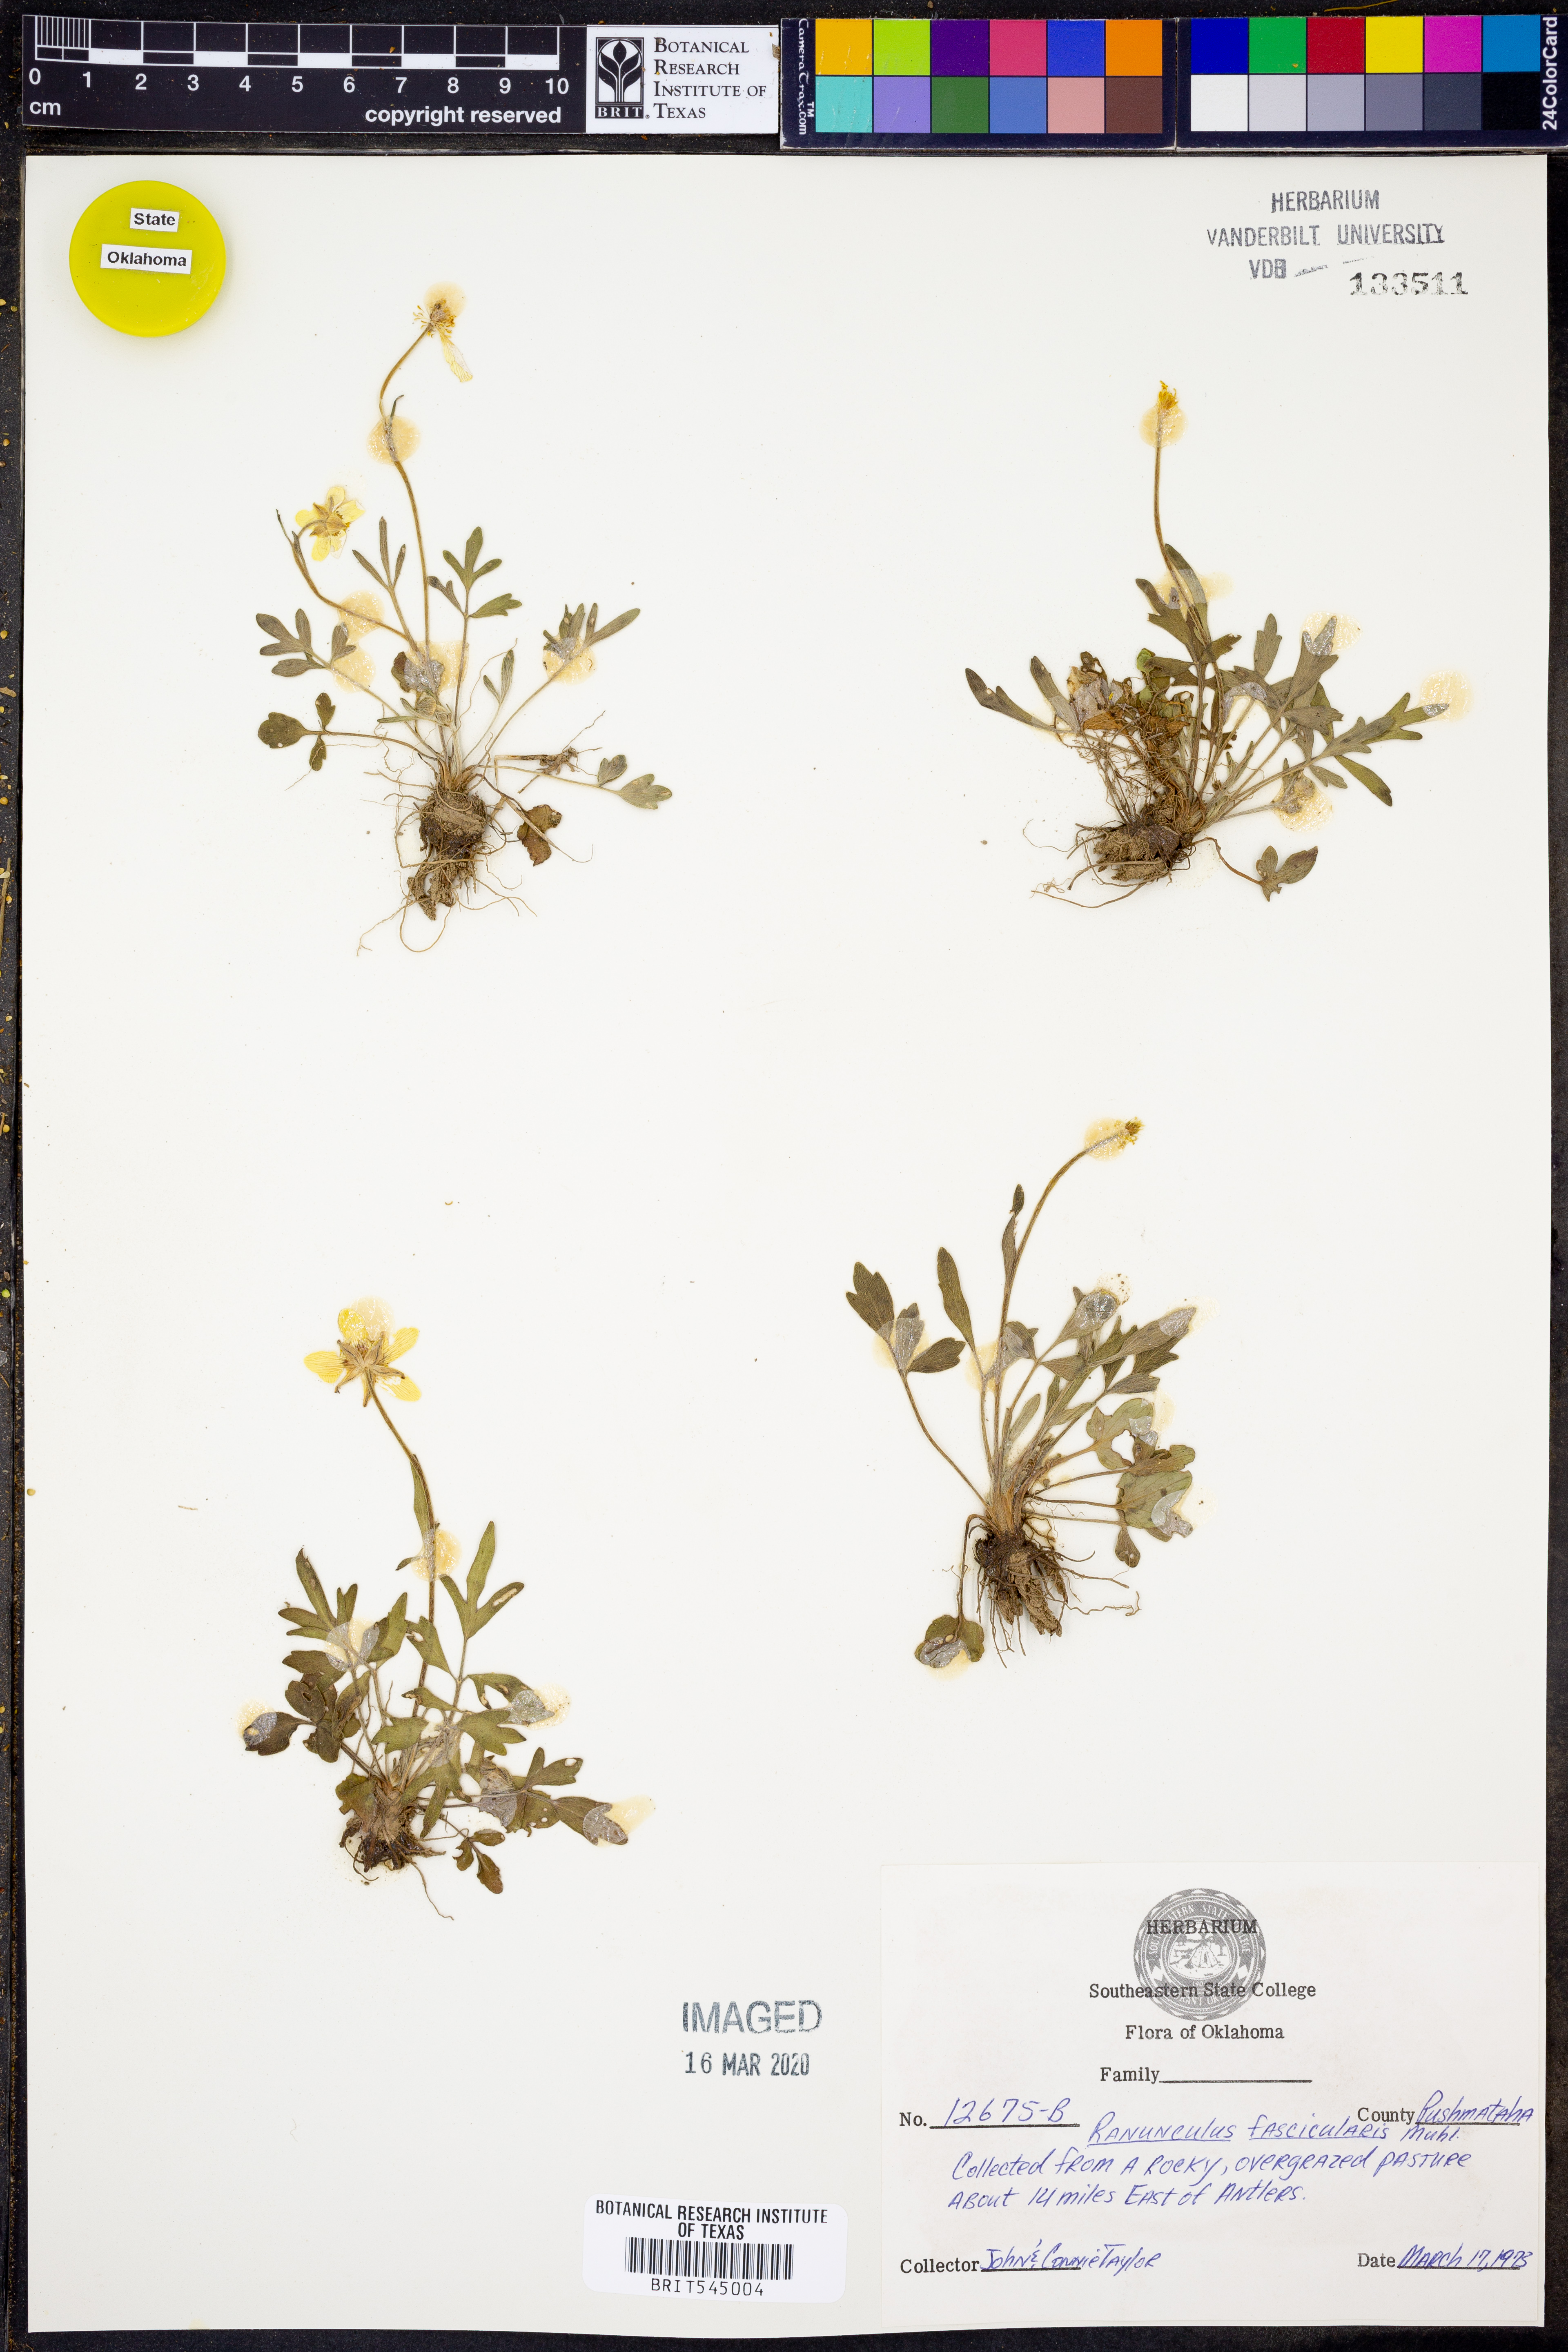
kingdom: Plantae
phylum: Tracheophyta
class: Magnoliopsida
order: Ranunculales
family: Ranunculaceae
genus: Ranunculus
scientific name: Ranunculus fascicularis
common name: Early buttercup
